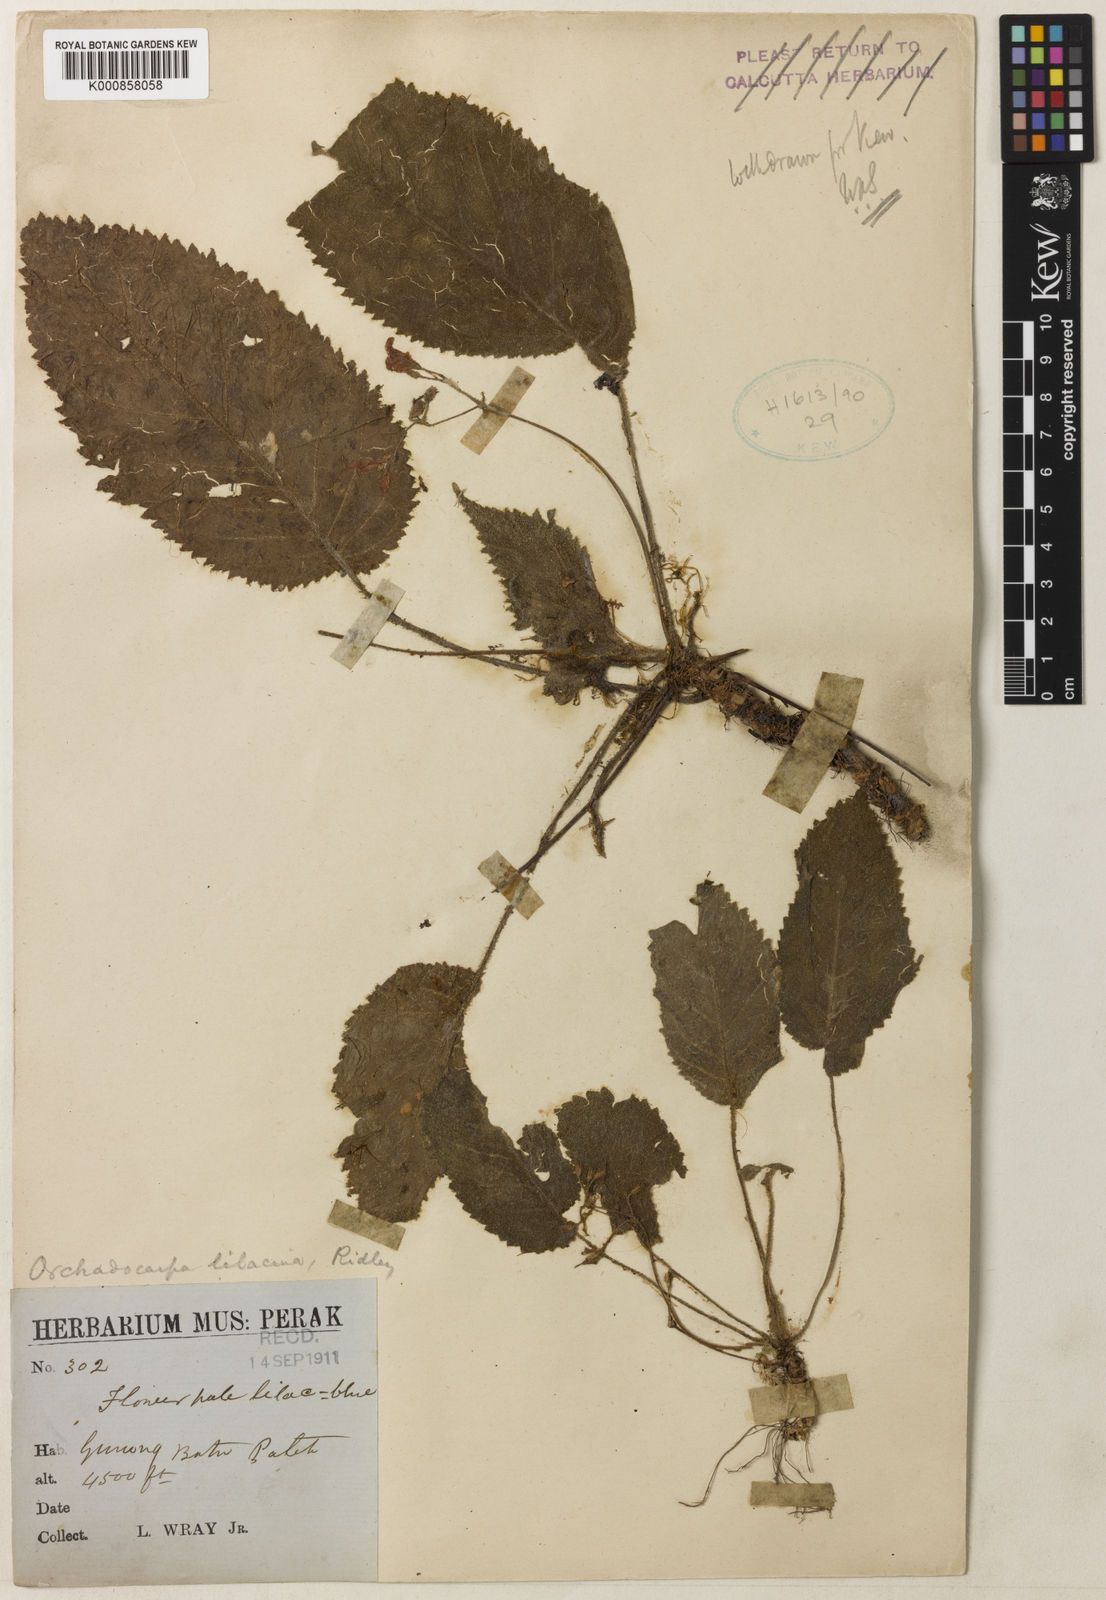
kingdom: Plantae
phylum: Tracheophyta
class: Magnoliopsida
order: Lamiales
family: Gesneriaceae
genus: Orchadocarpa
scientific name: Orchadocarpa lilacina
